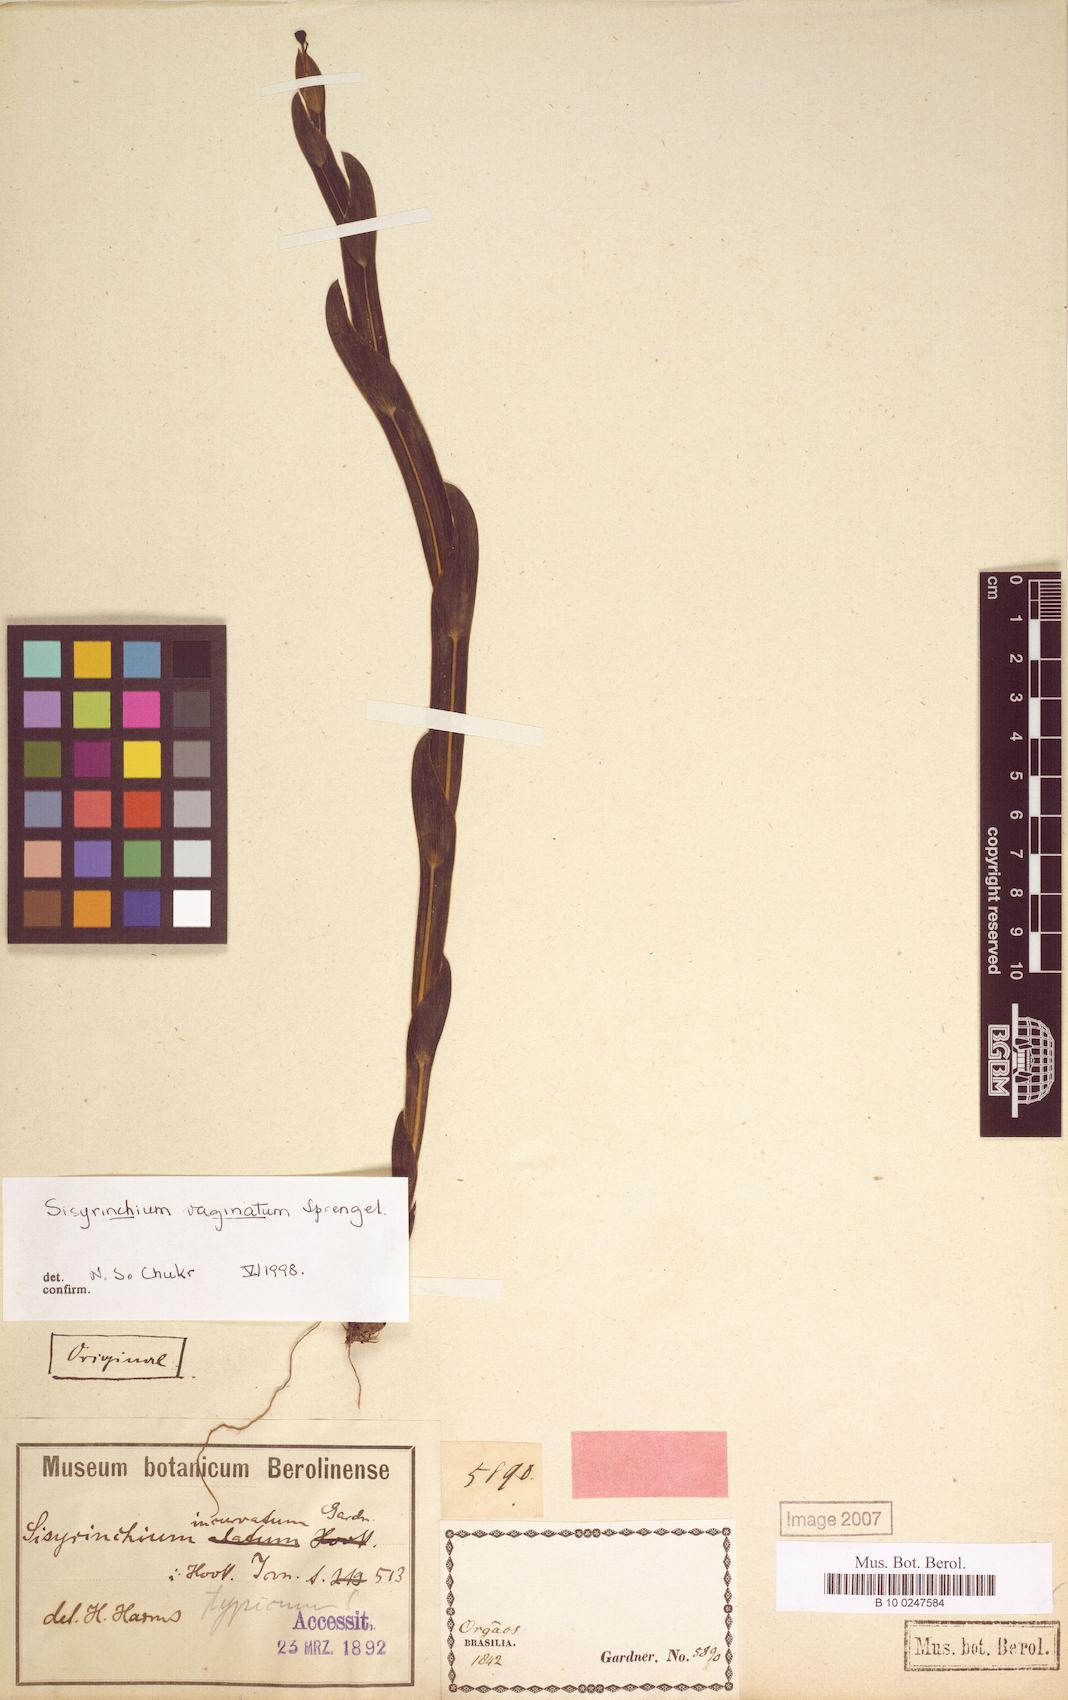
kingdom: Plantae
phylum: Tracheophyta
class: Liliopsida
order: Asparagales
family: Iridaceae
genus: Sisyrinchium
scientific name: Sisyrinchium vaginatum
